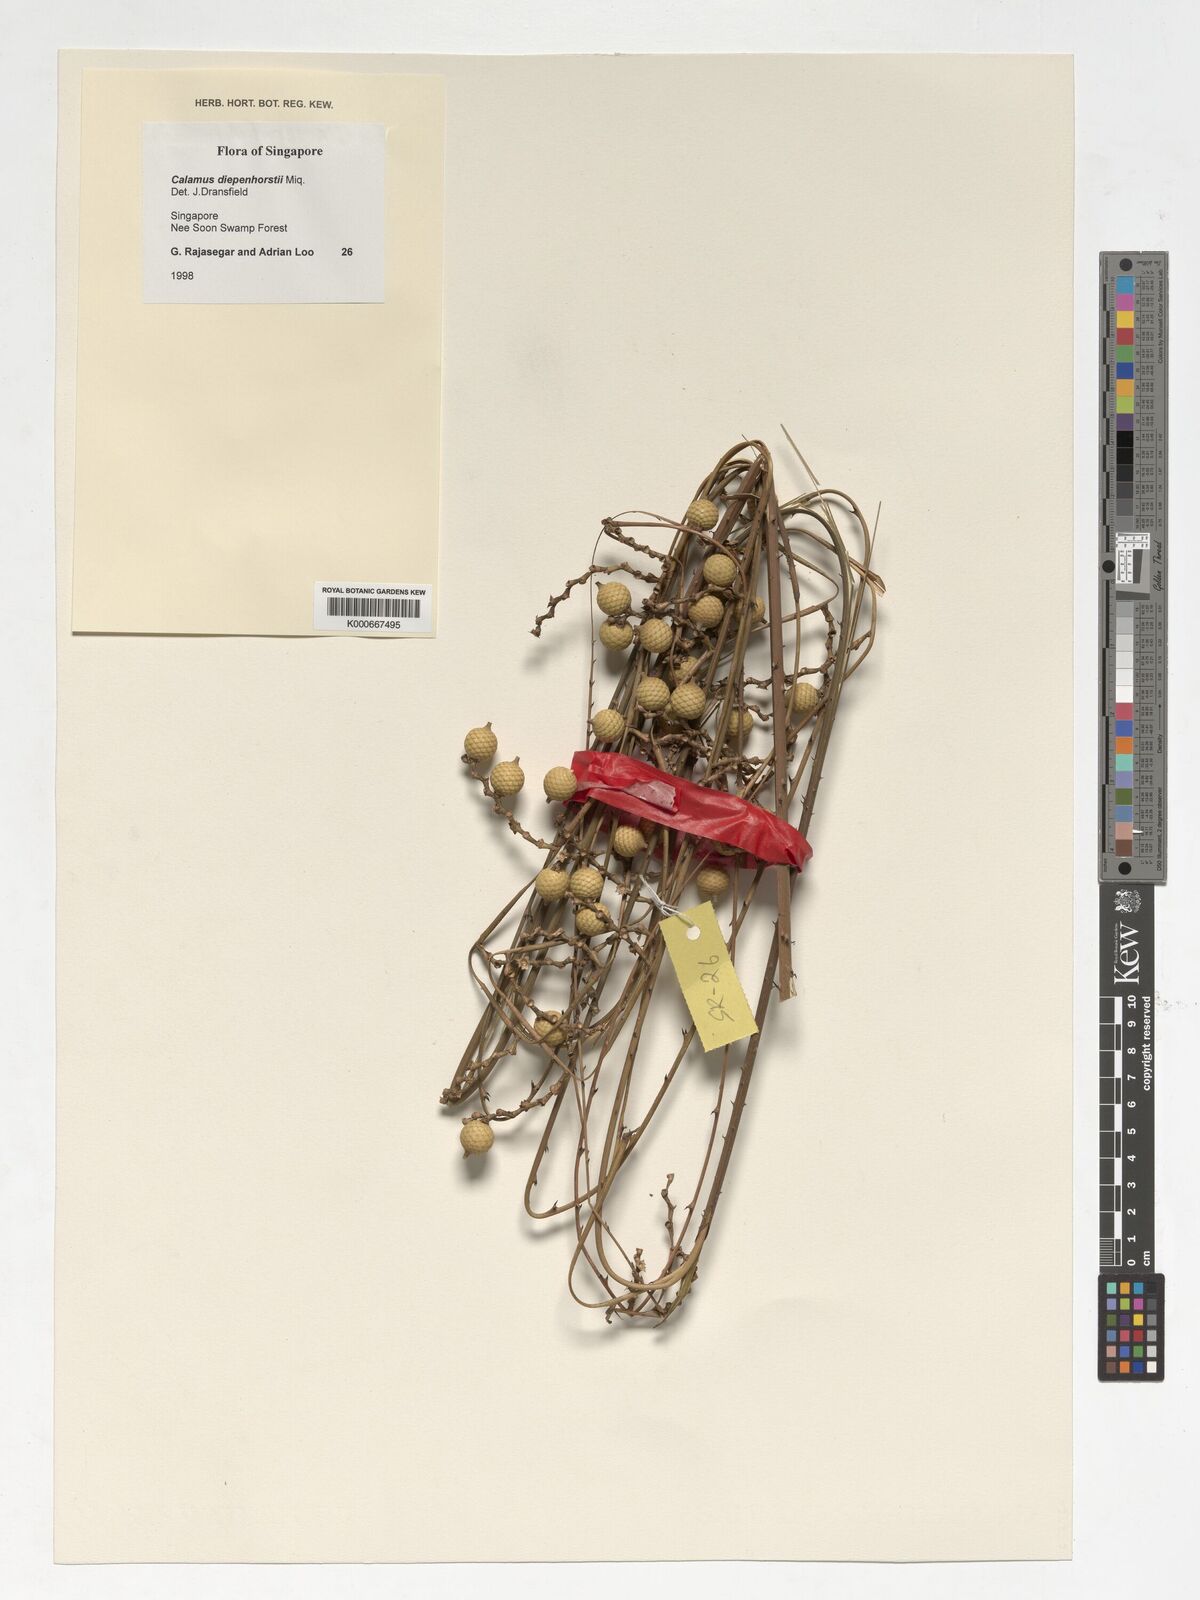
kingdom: Plantae
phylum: Tracheophyta
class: Liliopsida
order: Arecales
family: Arecaceae
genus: Calamus
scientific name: Calamus diepenhorstii
